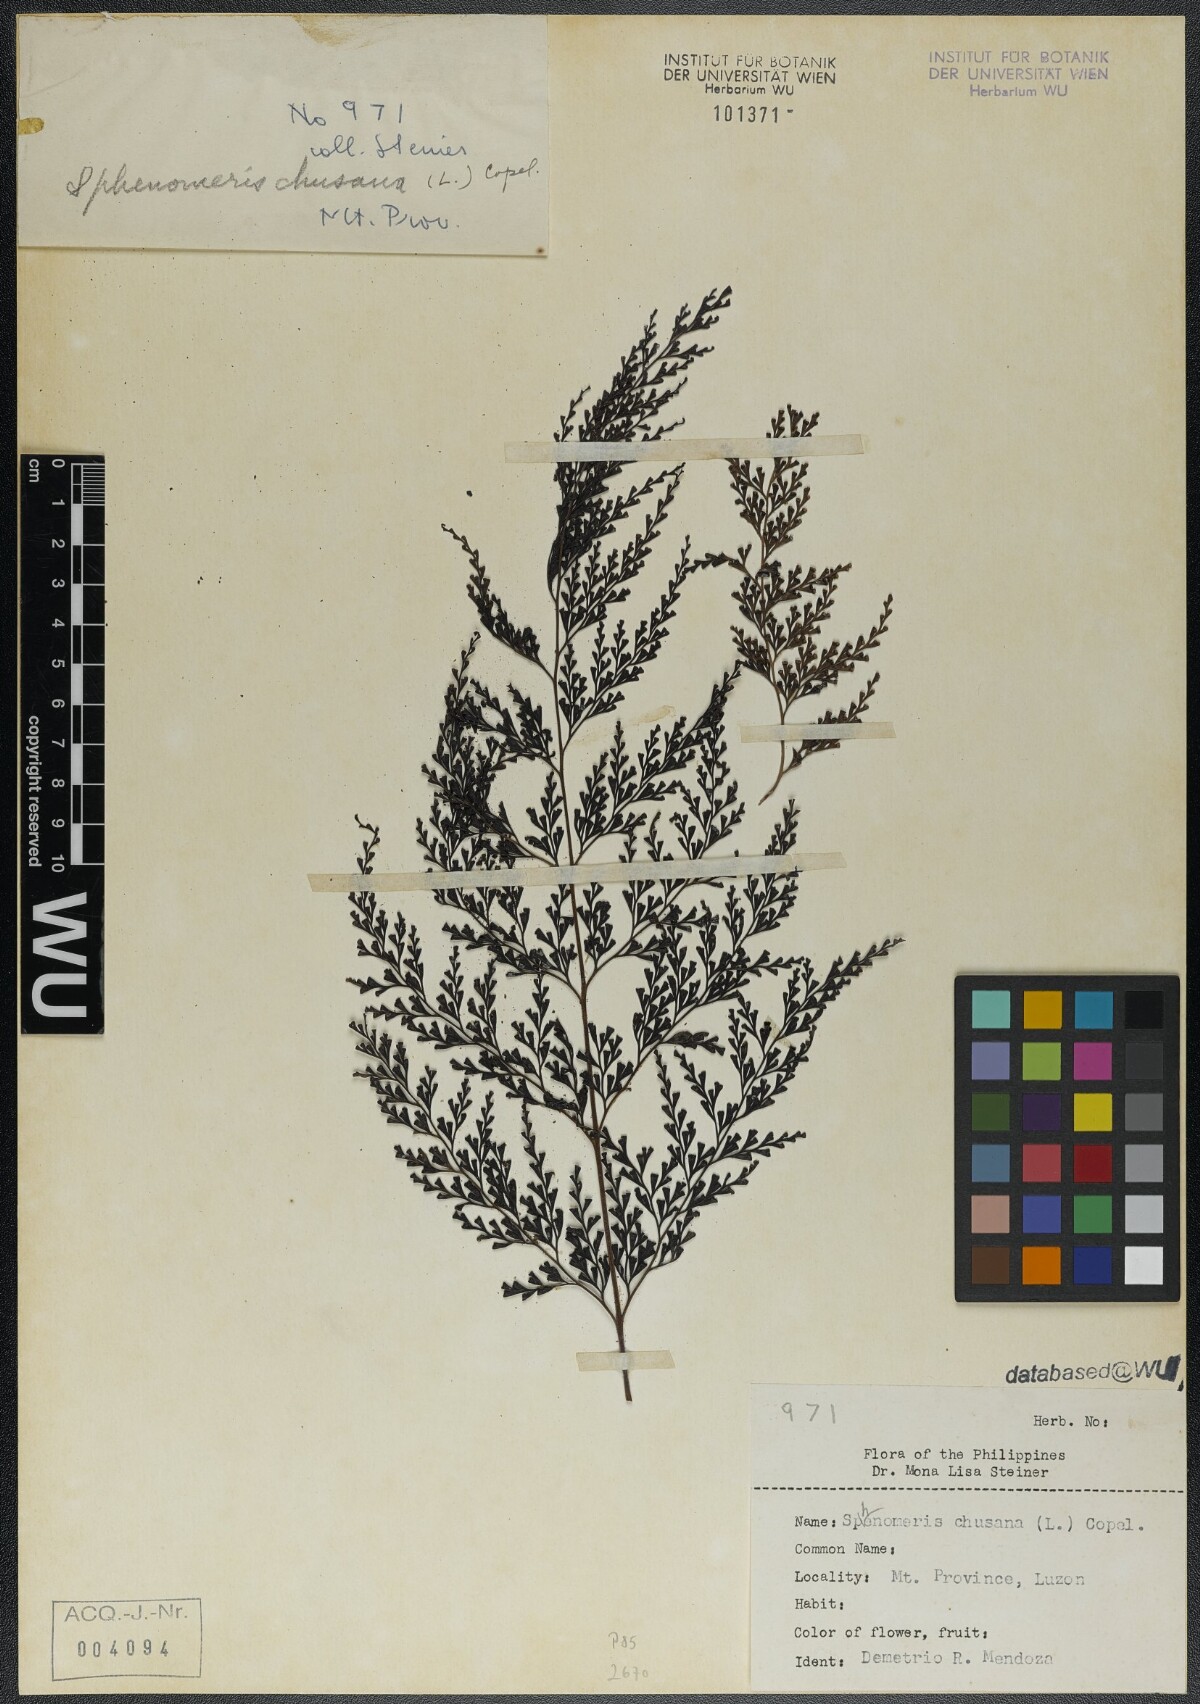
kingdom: Plantae
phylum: Tracheophyta
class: Polypodiopsida
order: Polypodiales
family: Lindsaeaceae
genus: Odontosoria
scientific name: Odontosoria chinensis
